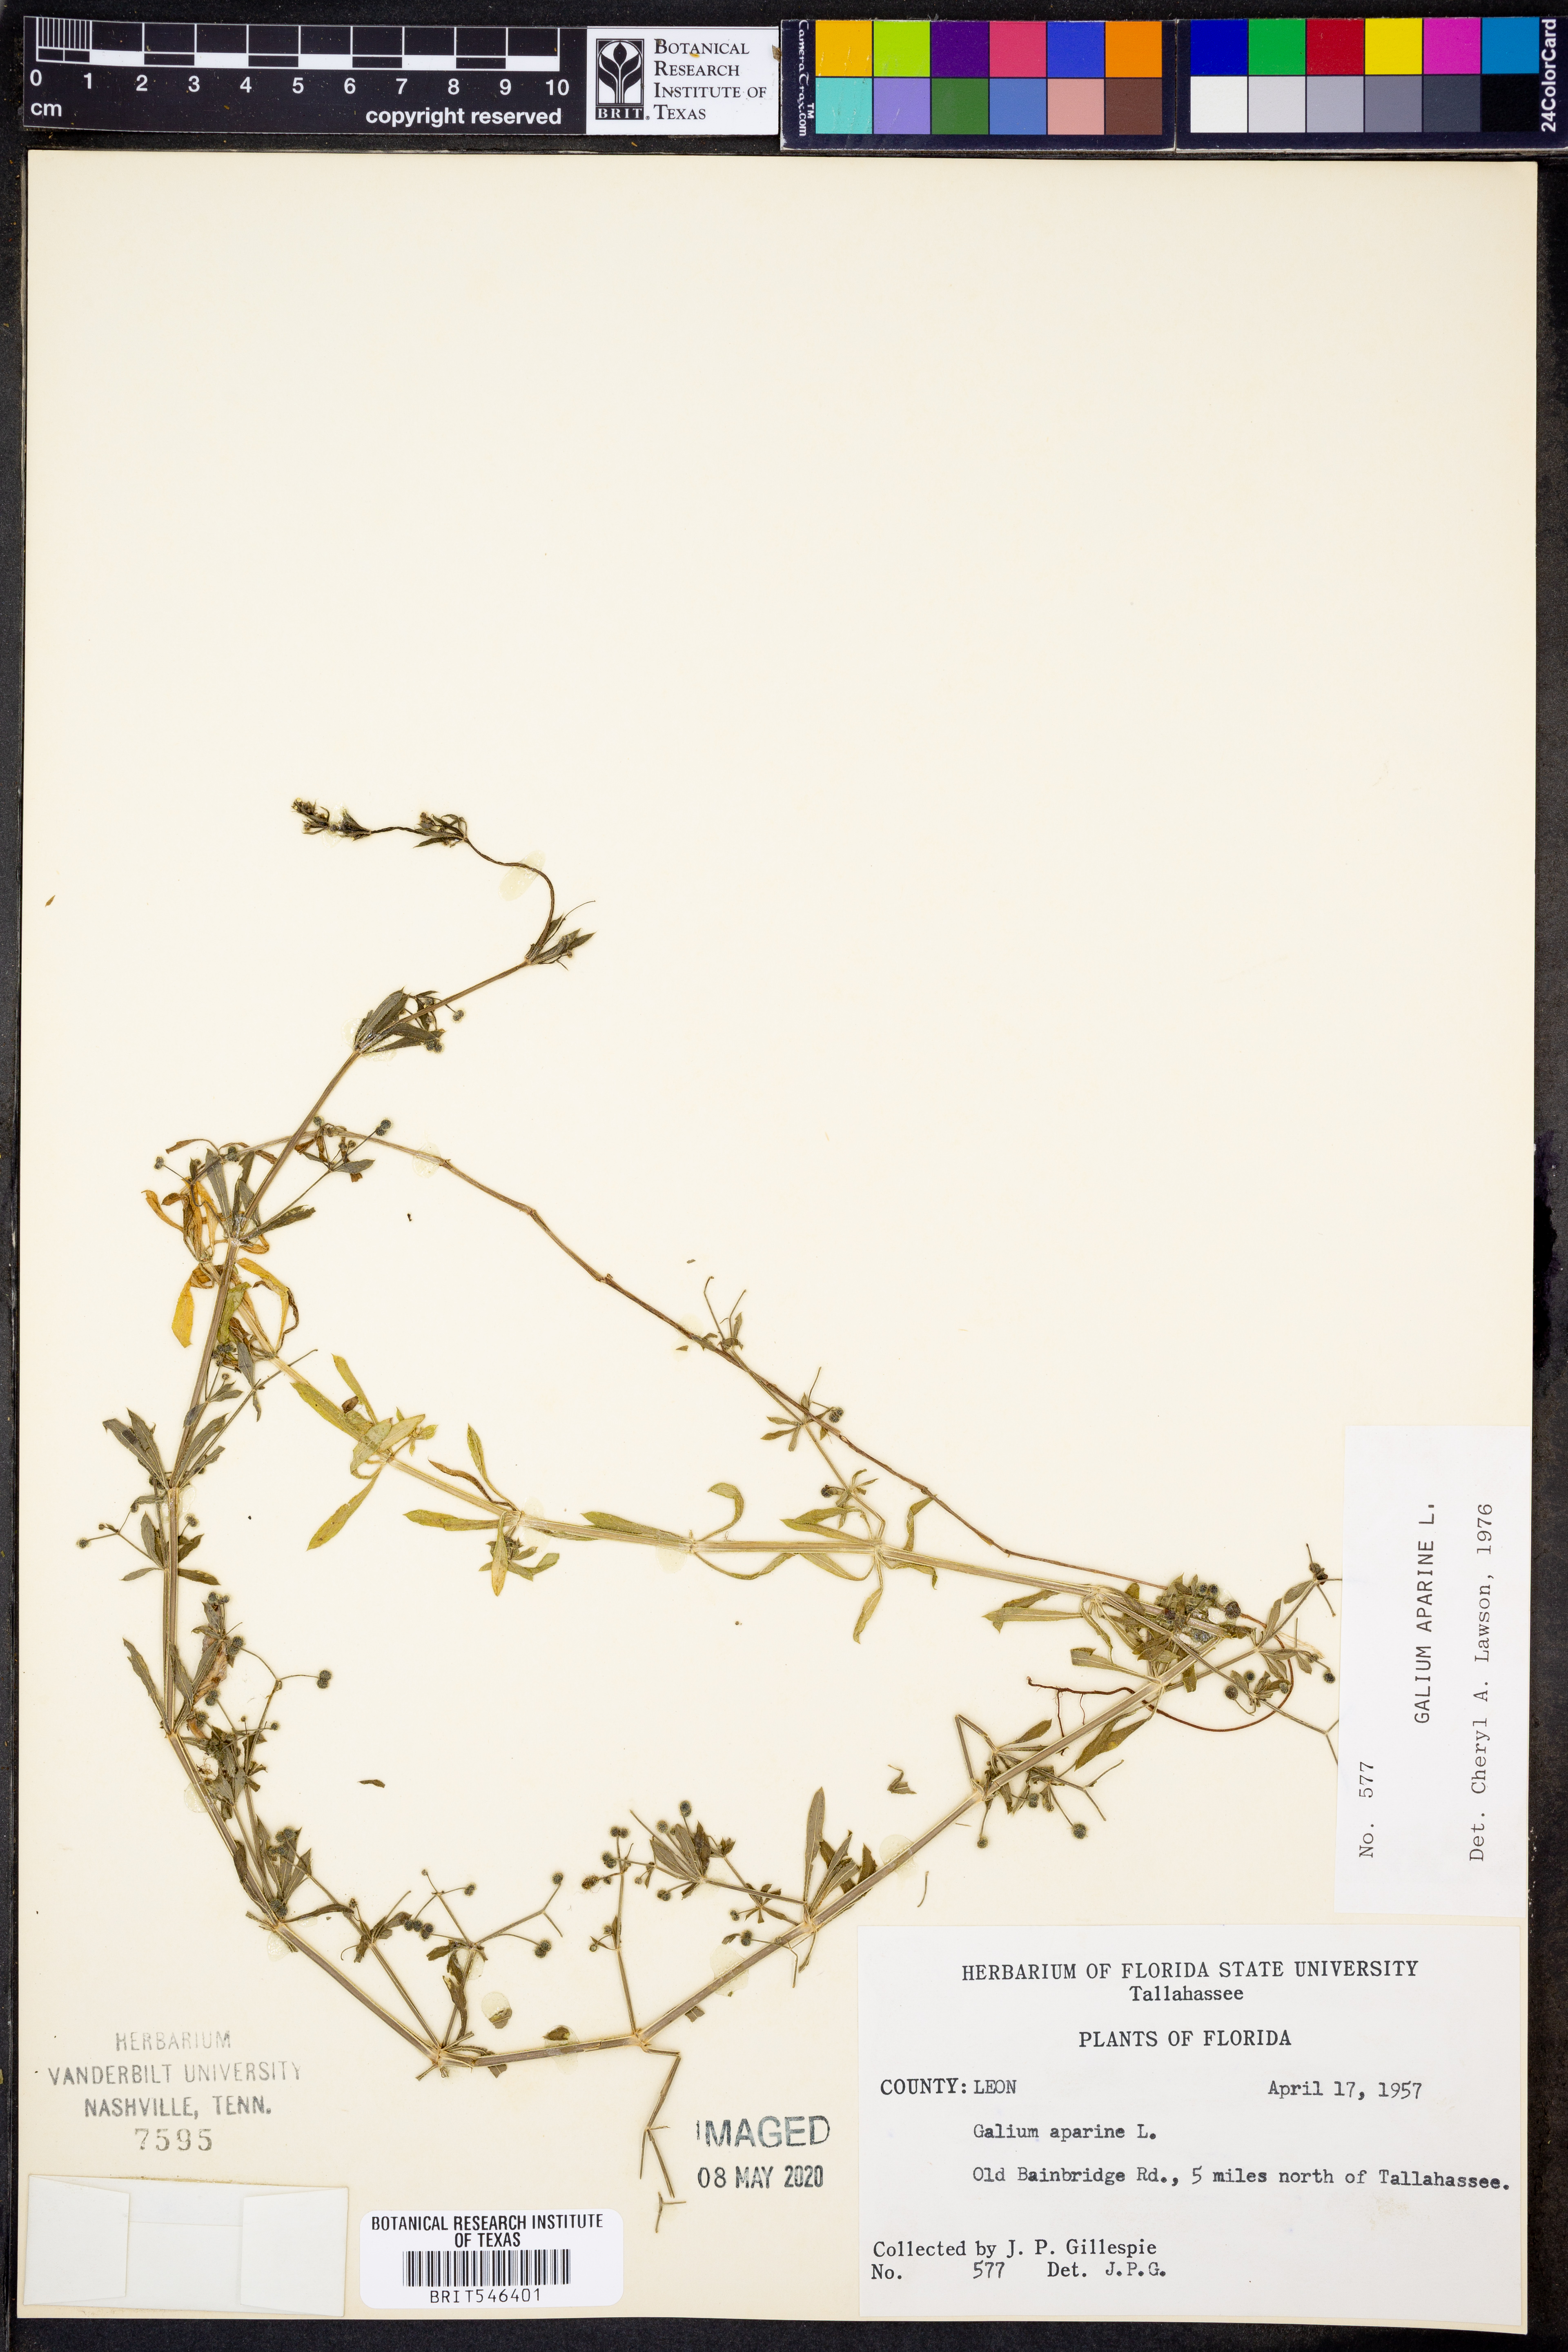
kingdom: Plantae
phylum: Tracheophyta
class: Magnoliopsida
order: Gentianales
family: Rubiaceae
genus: Galium
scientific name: Galium aparine
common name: Cleavers
